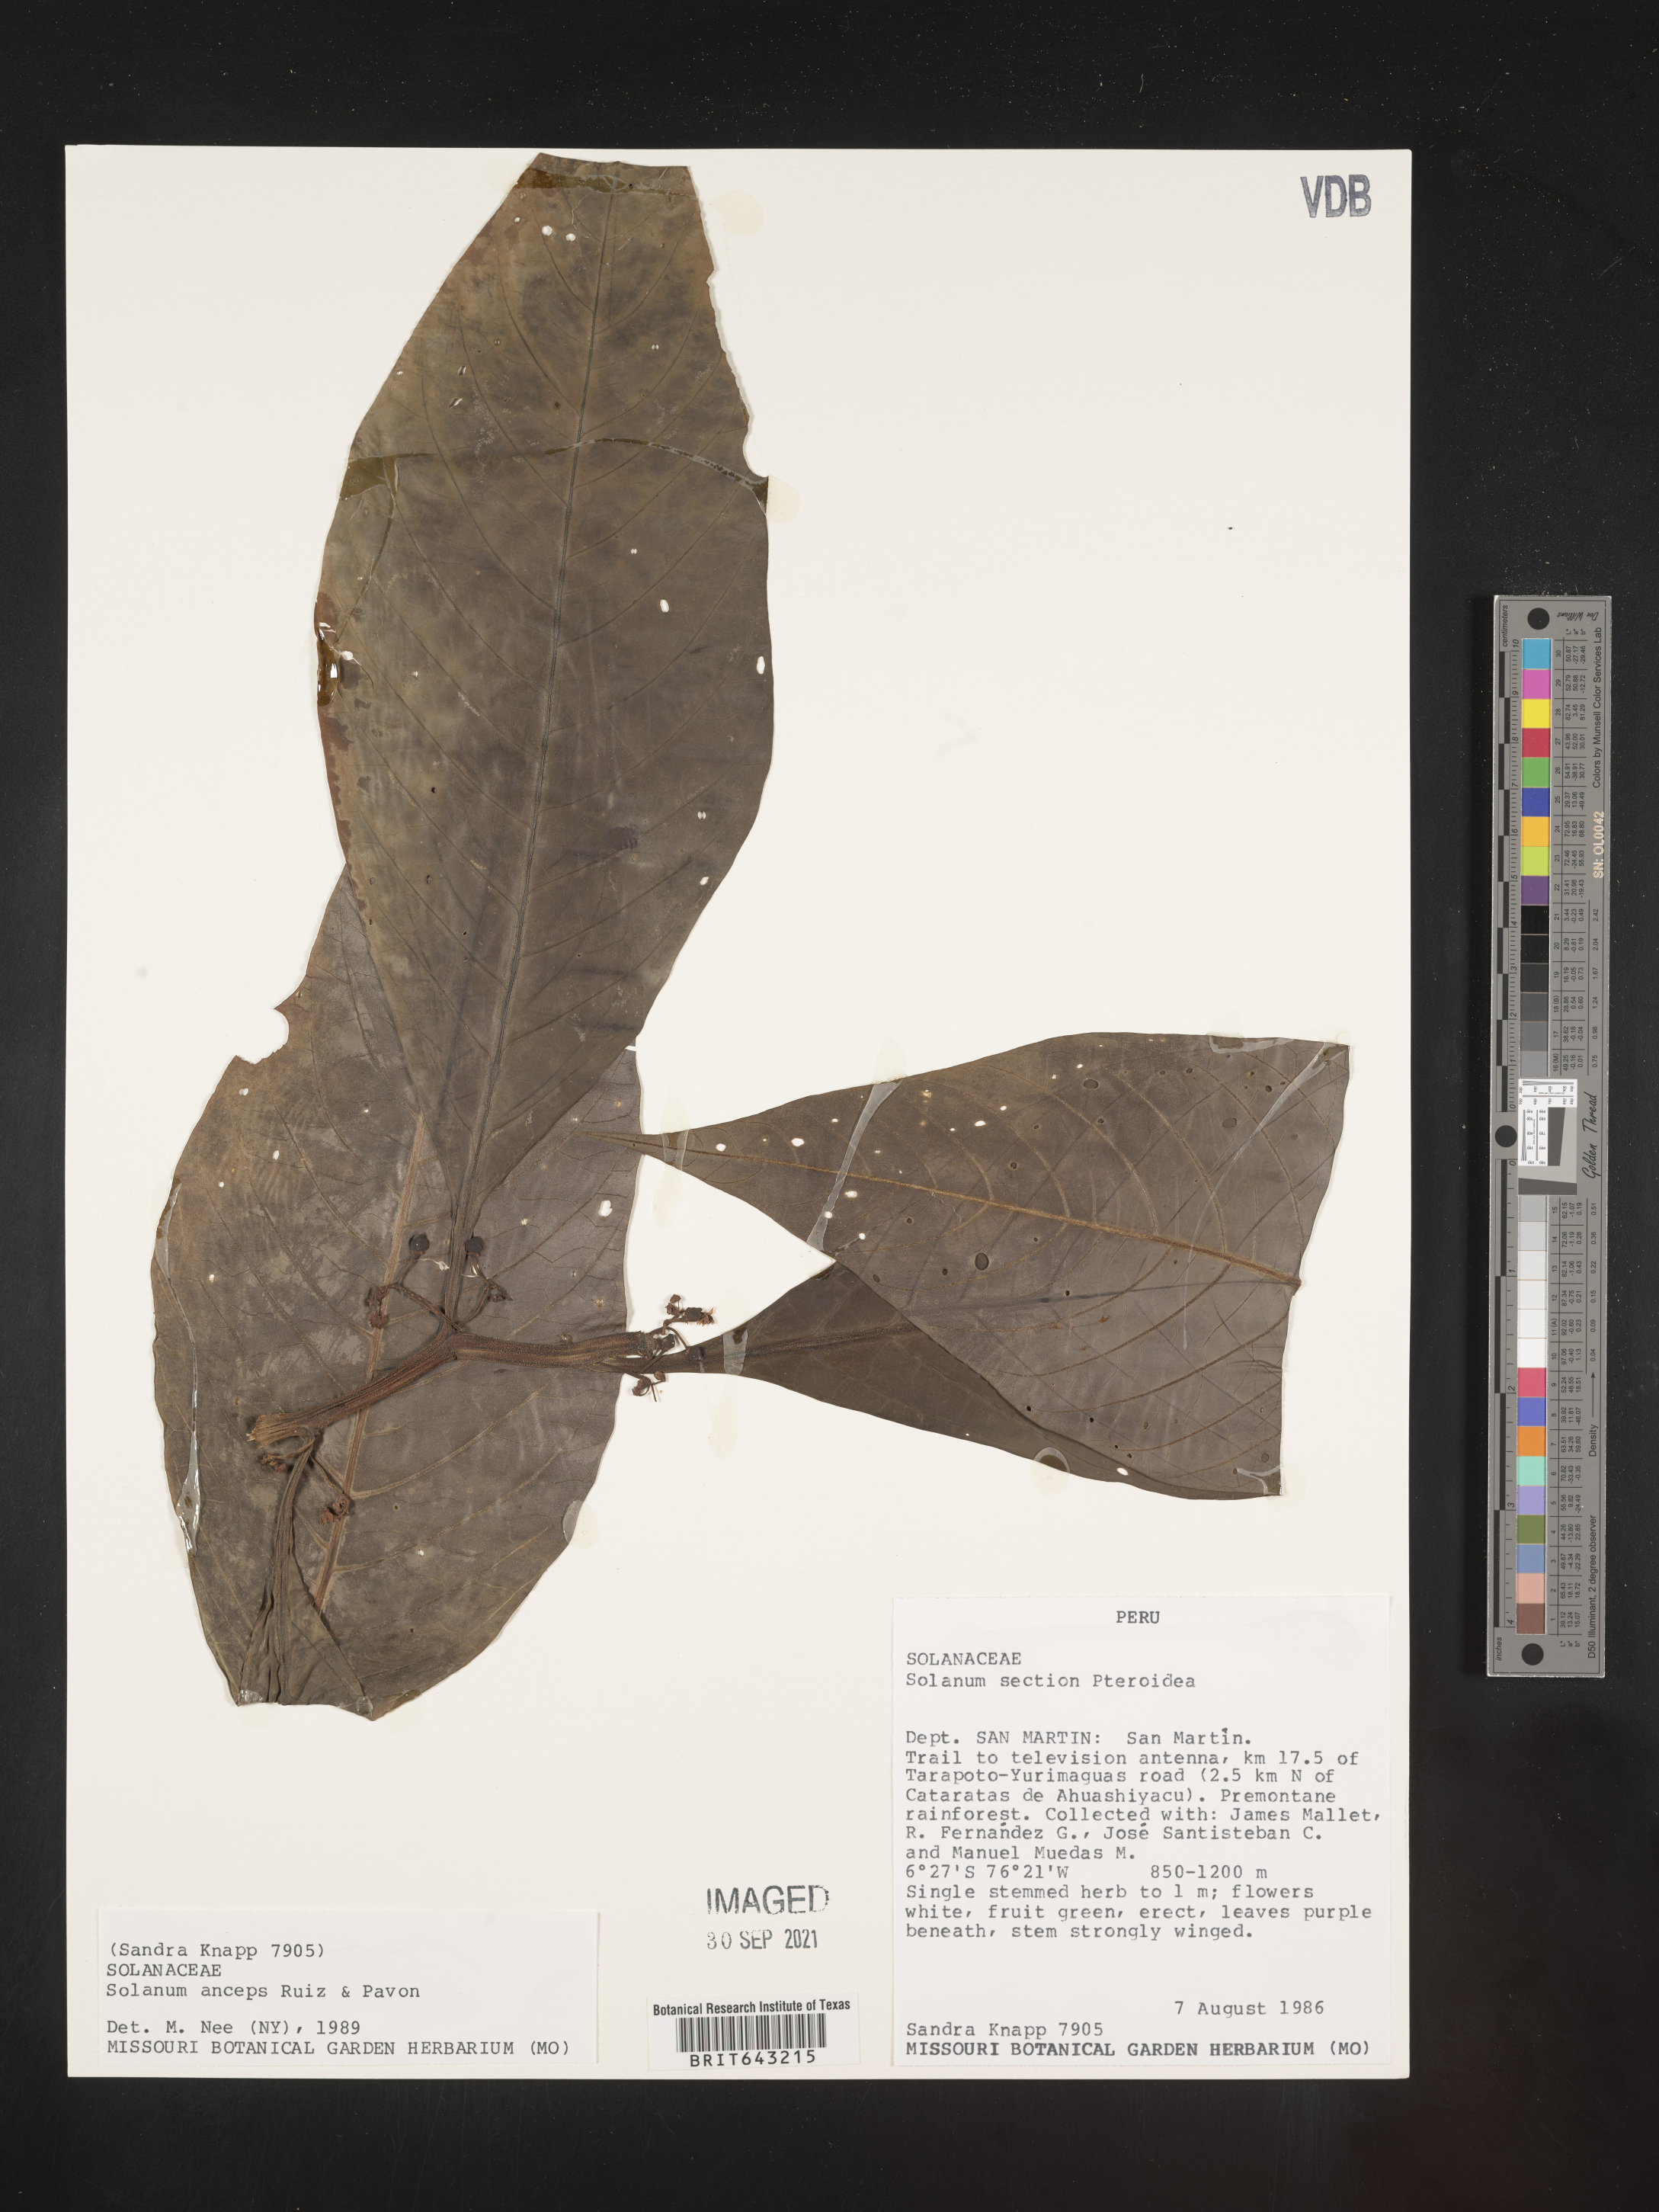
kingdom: Plantae
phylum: Tracheophyta
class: Magnoliopsida
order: Solanales
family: Solanaceae
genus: Solanum
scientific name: Solanum
